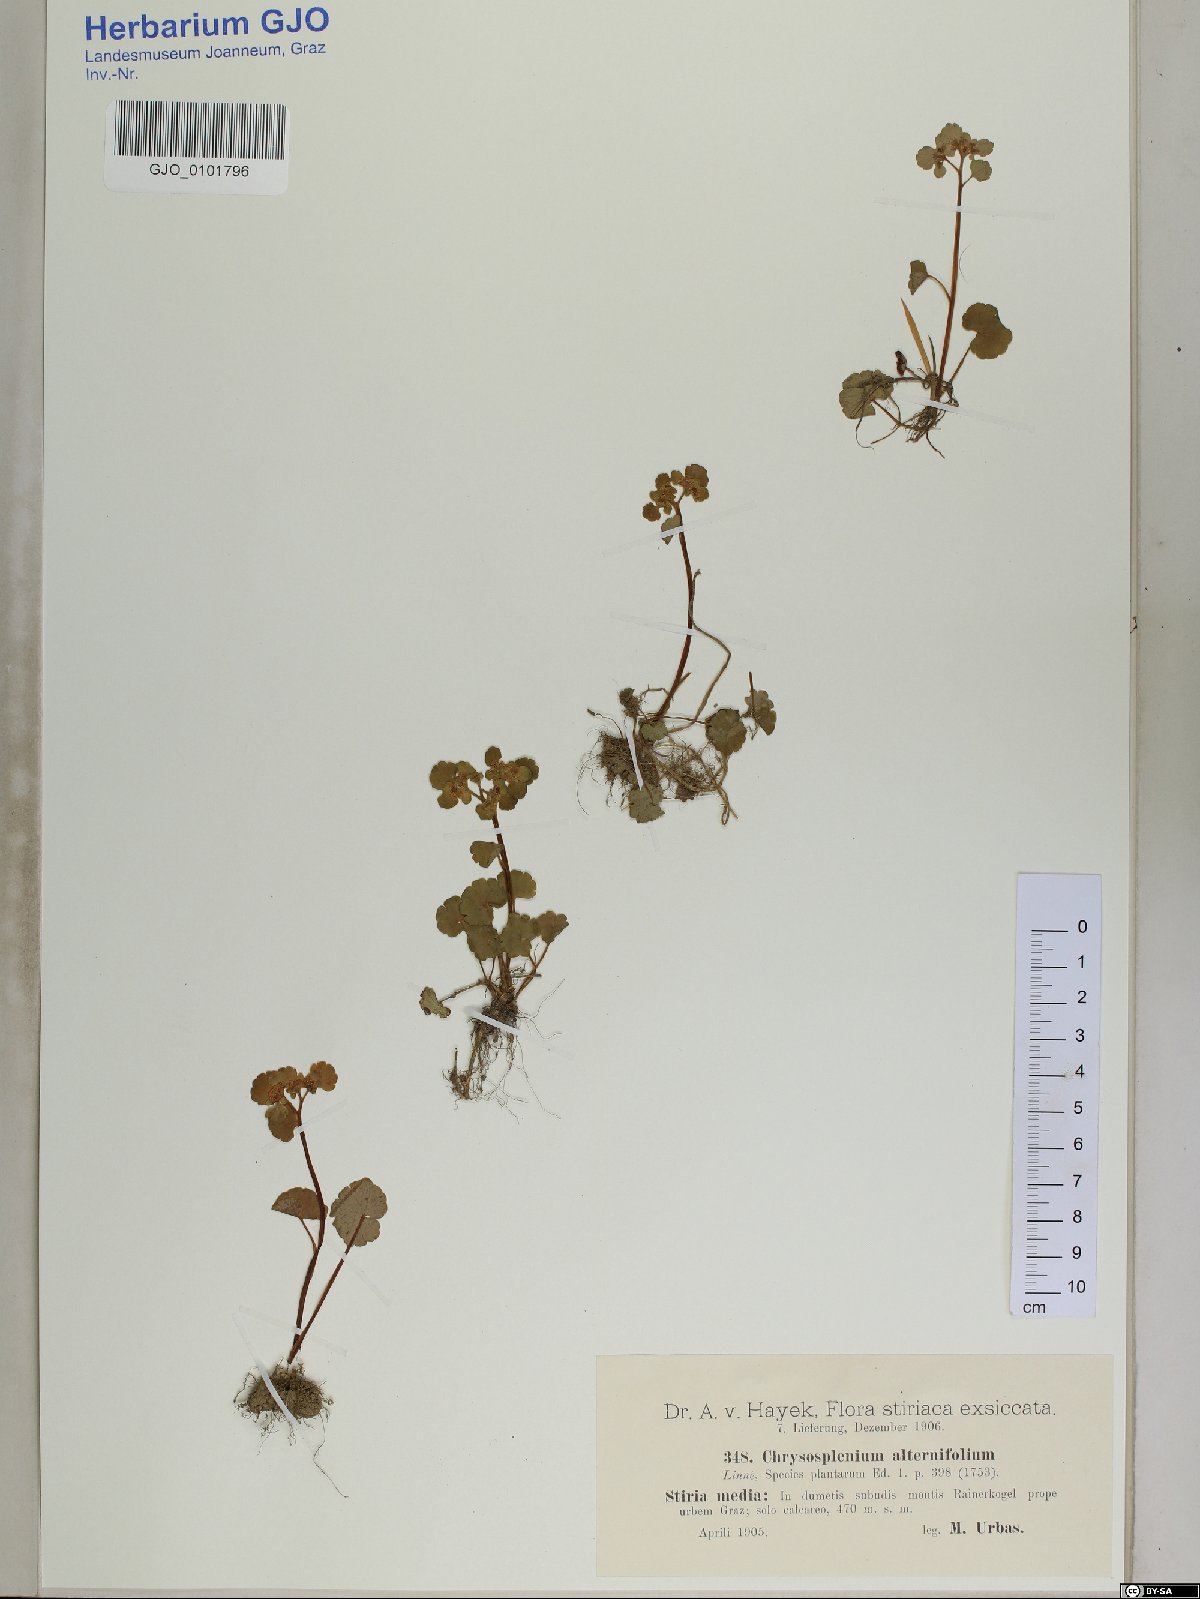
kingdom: Plantae
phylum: Tracheophyta
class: Magnoliopsida
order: Saxifragales
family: Saxifragaceae
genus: Chrysosplenium
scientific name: Chrysosplenium alternifolium
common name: Alternate-leaved golden-saxifrage
